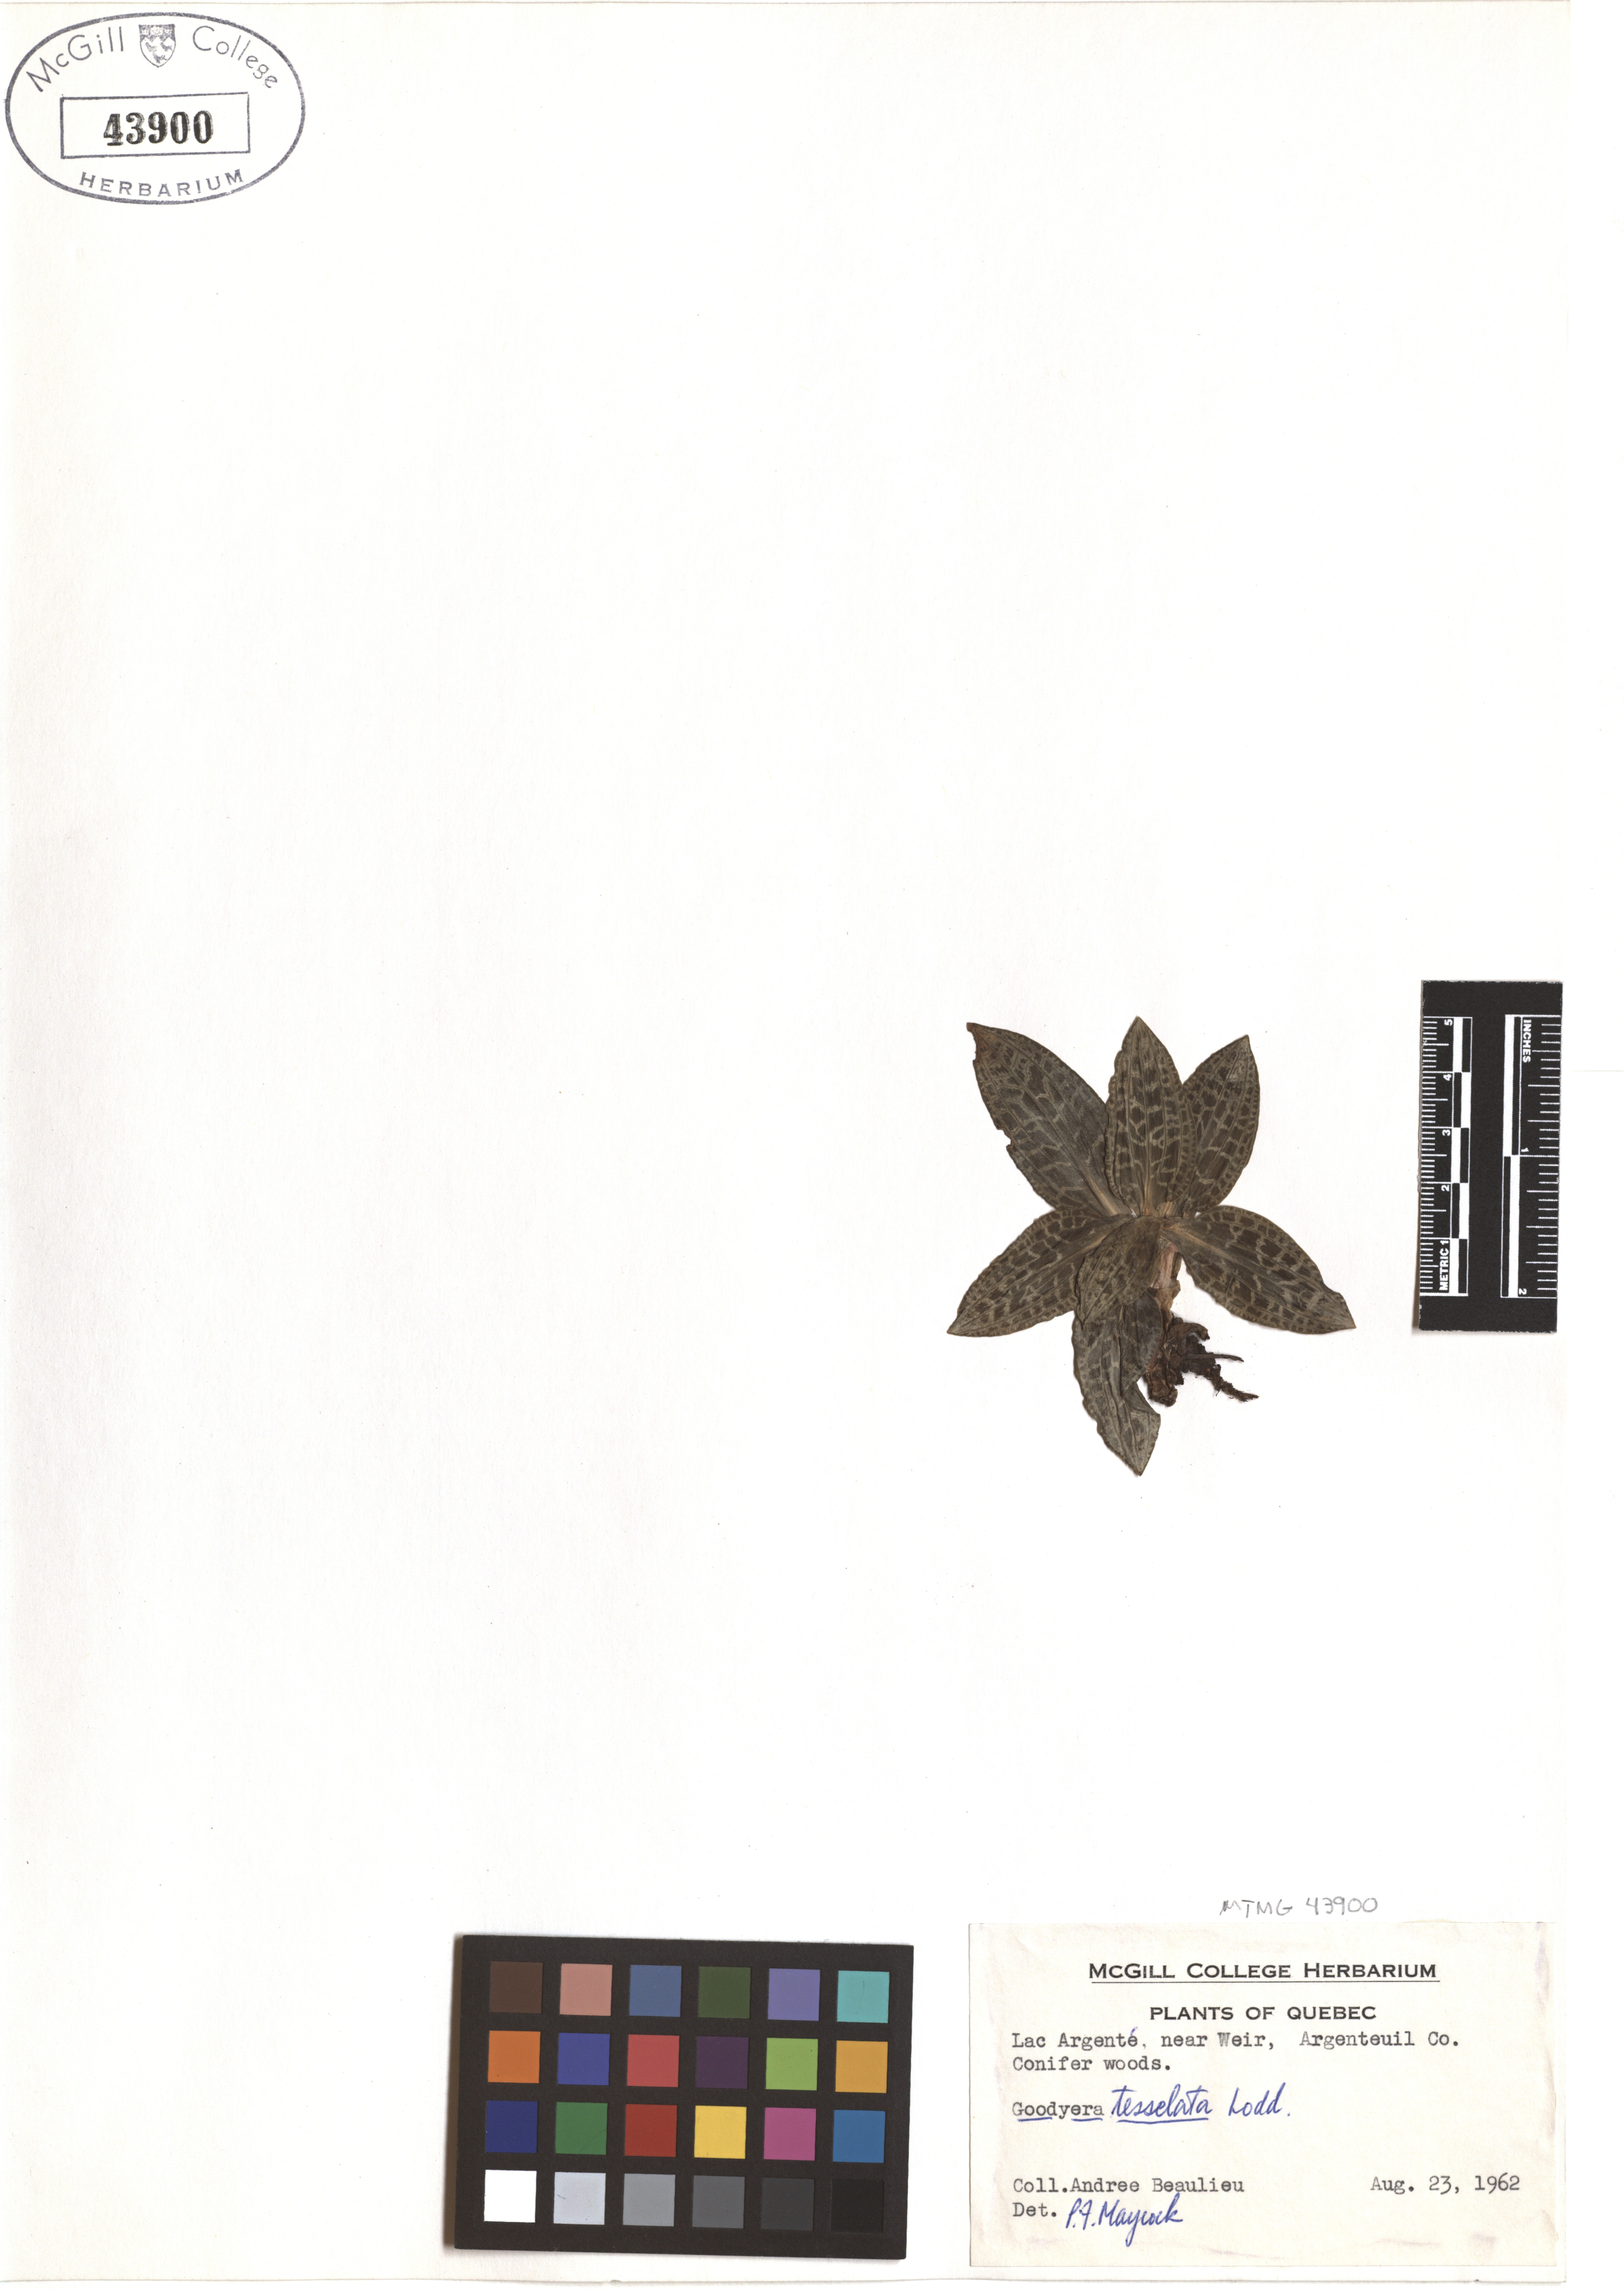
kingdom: Plantae
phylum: Tracheophyta
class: Liliopsida
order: Asparagales
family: Orchidaceae
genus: Goodyera
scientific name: Goodyera tesselata
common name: Checkered rattlesnake-plantain
